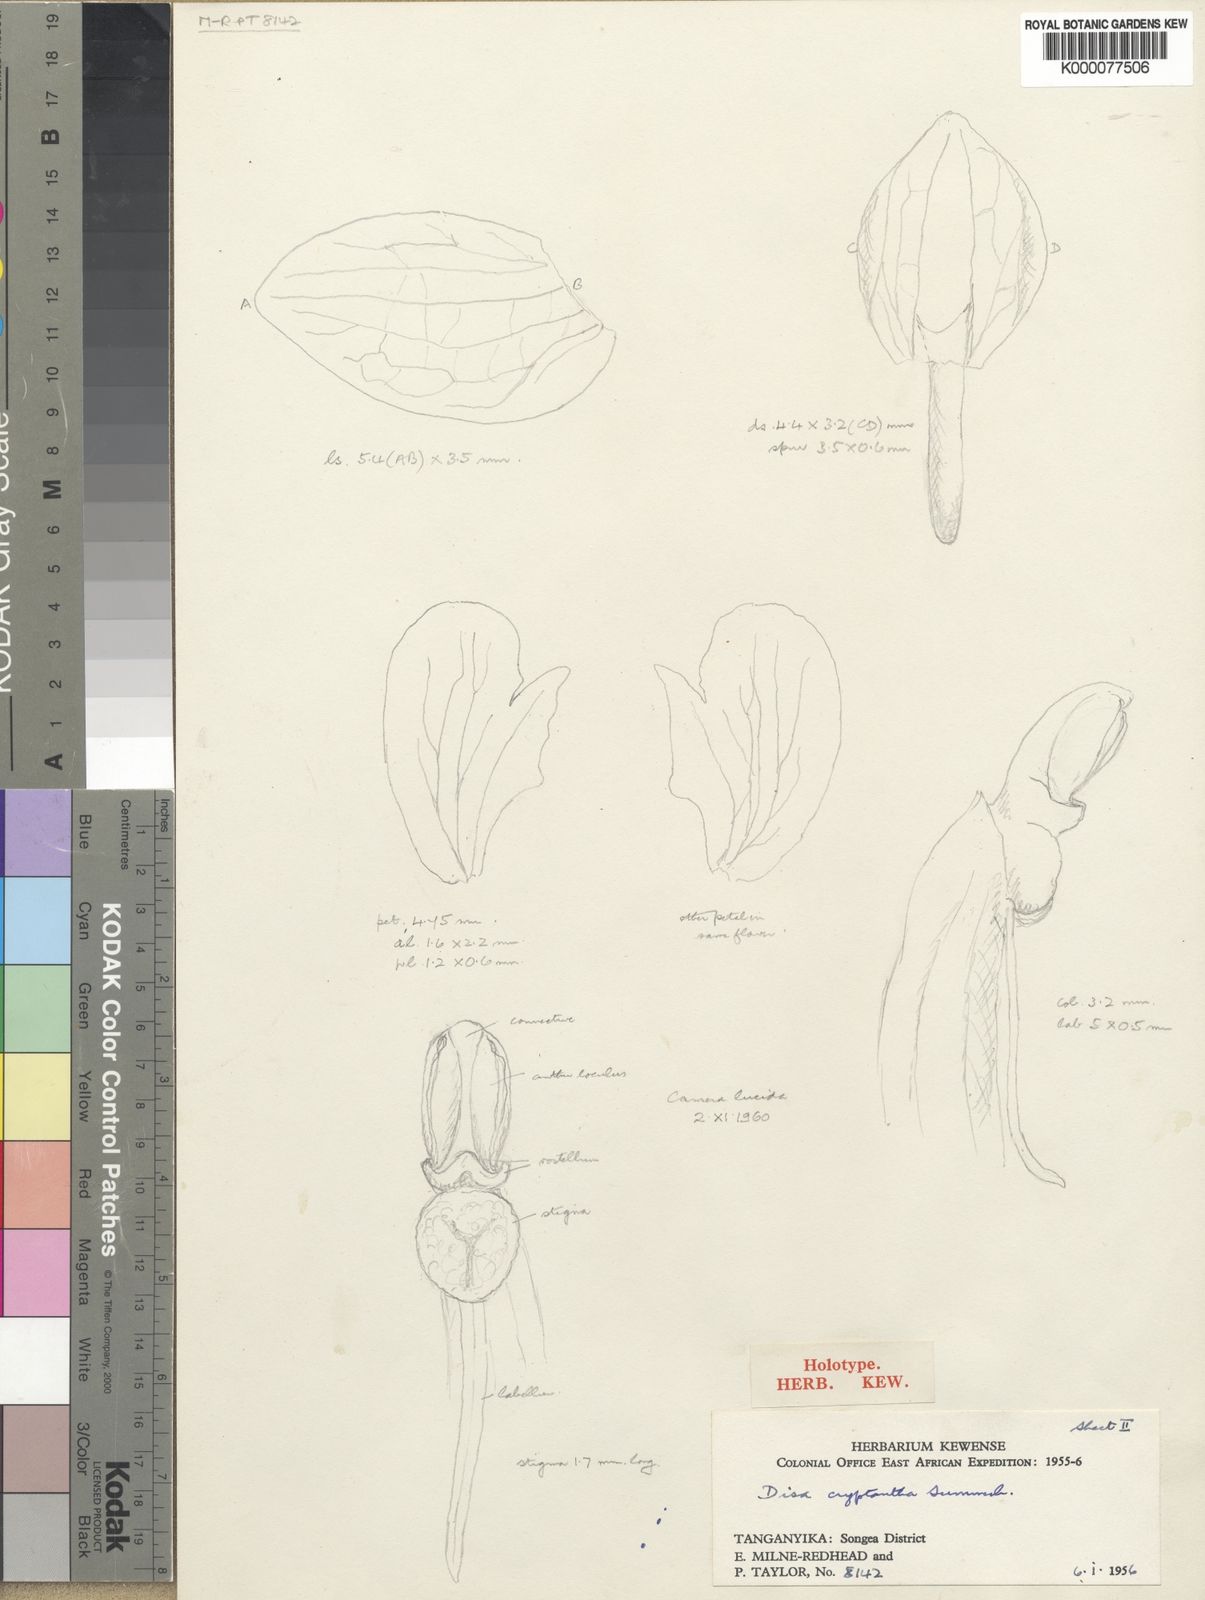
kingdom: Plantae
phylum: Tracheophyta
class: Liliopsida
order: Asparagales
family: Orchidaceae
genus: Disa
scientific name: Disa cryptantha
